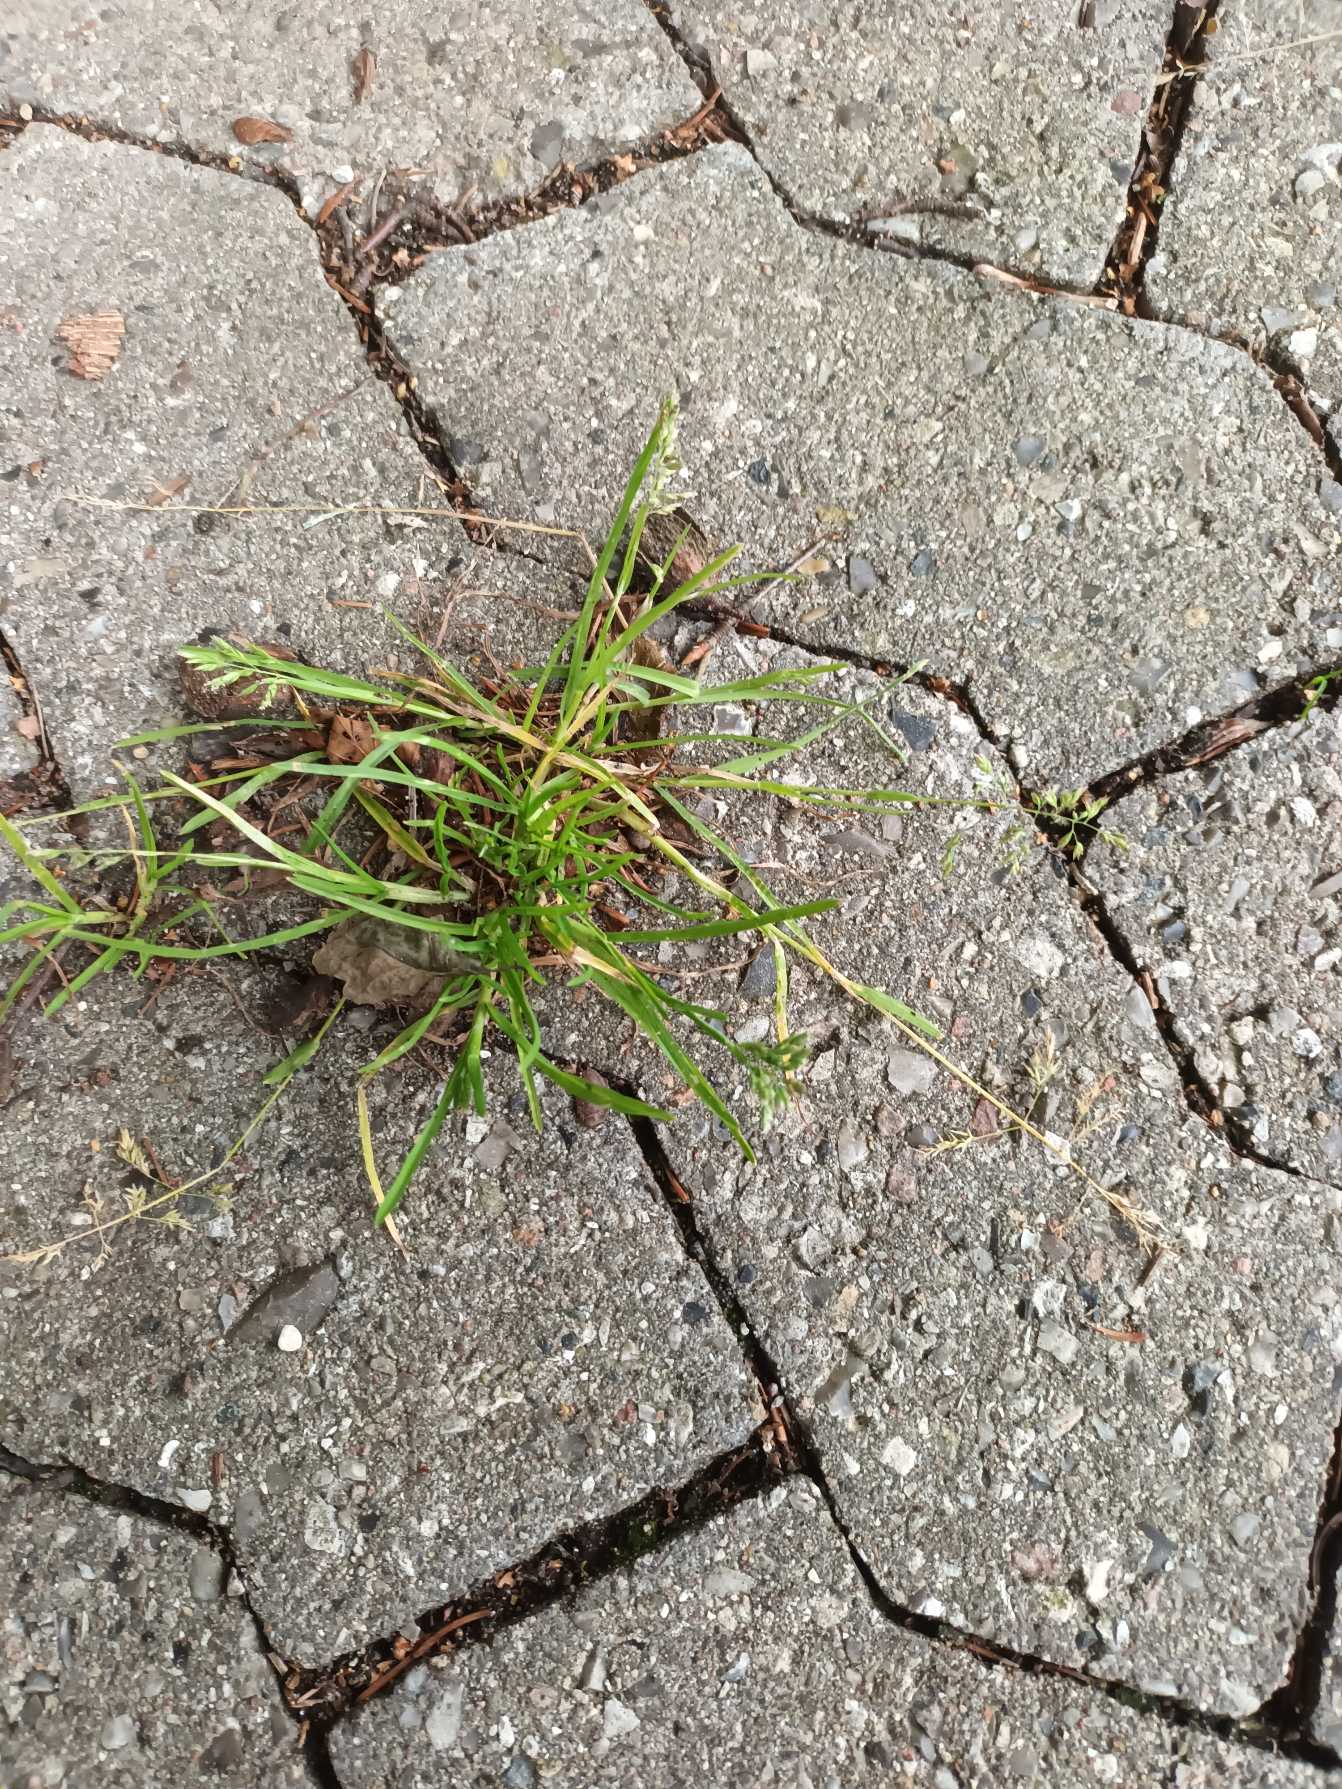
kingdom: Plantae
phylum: Tracheophyta
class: Liliopsida
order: Poales
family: Poaceae
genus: Poa
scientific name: Poa annua
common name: Enårig rapgræs
